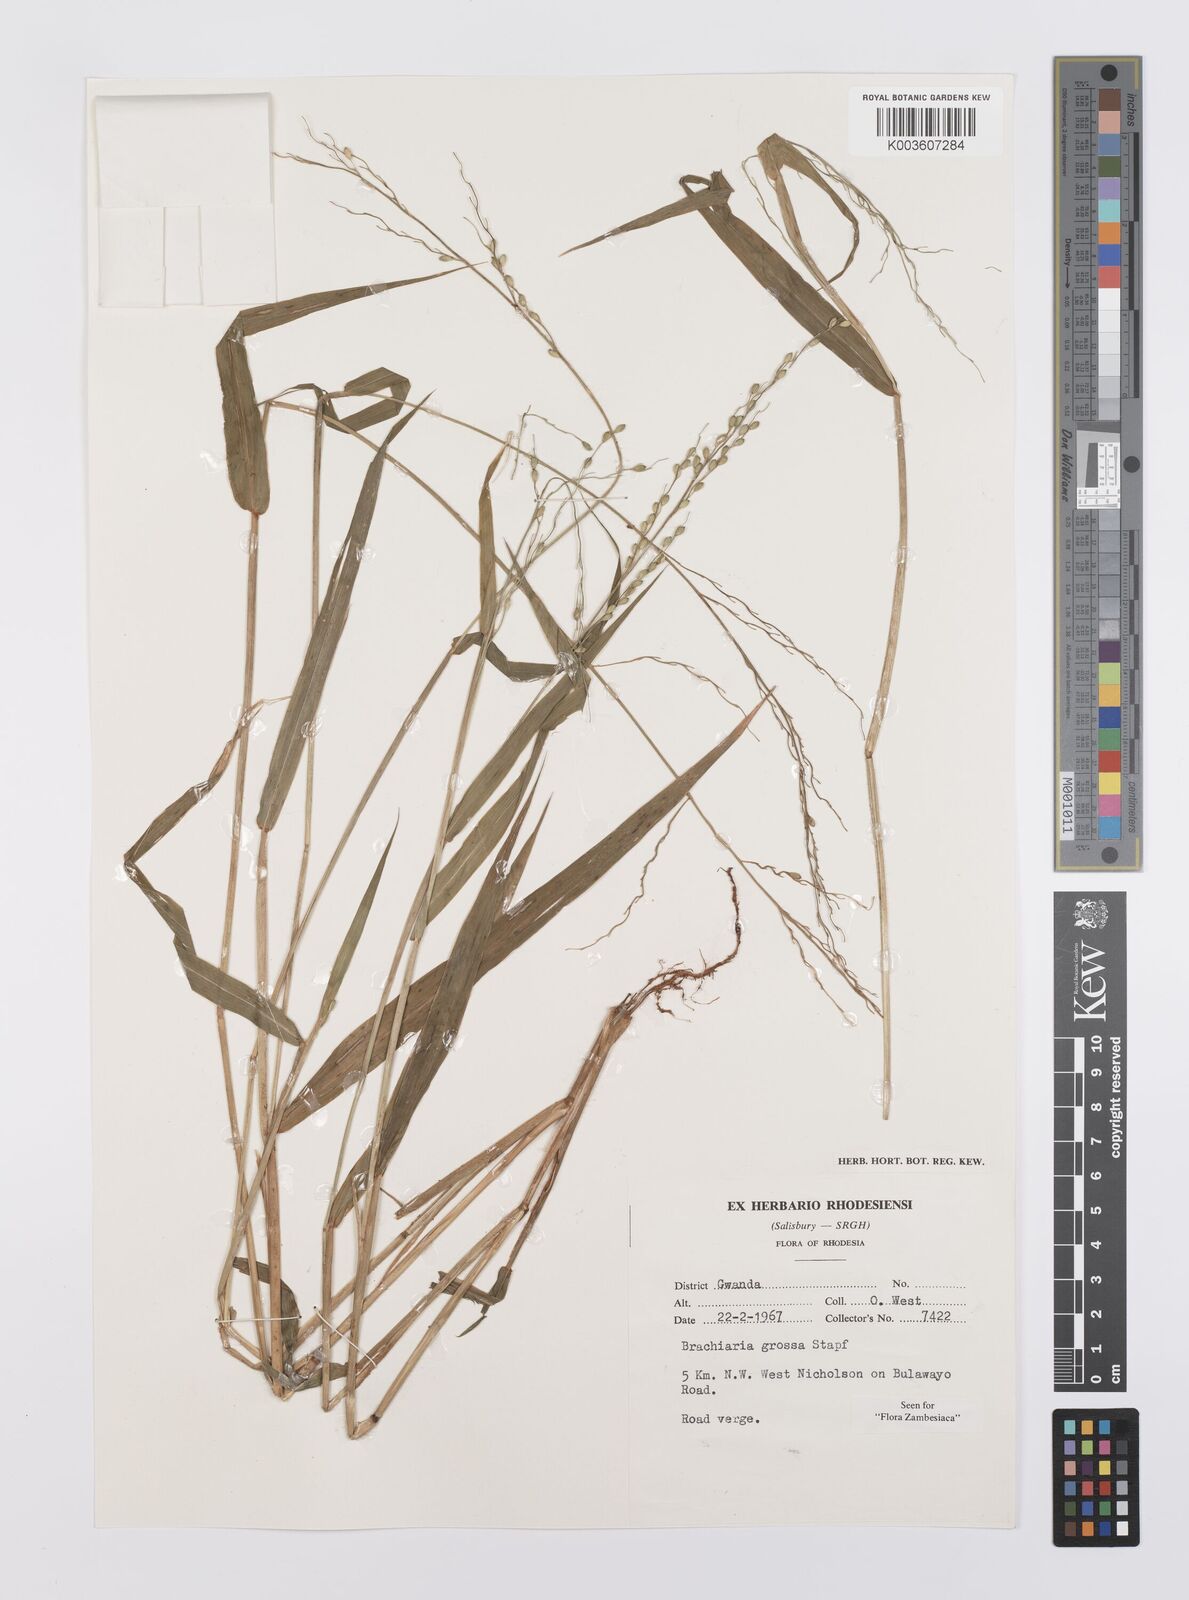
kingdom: Plantae
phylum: Tracheophyta
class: Liliopsida
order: Poales
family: Poaceae
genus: Urochloa
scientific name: Urochloa Brachiaria grossa
